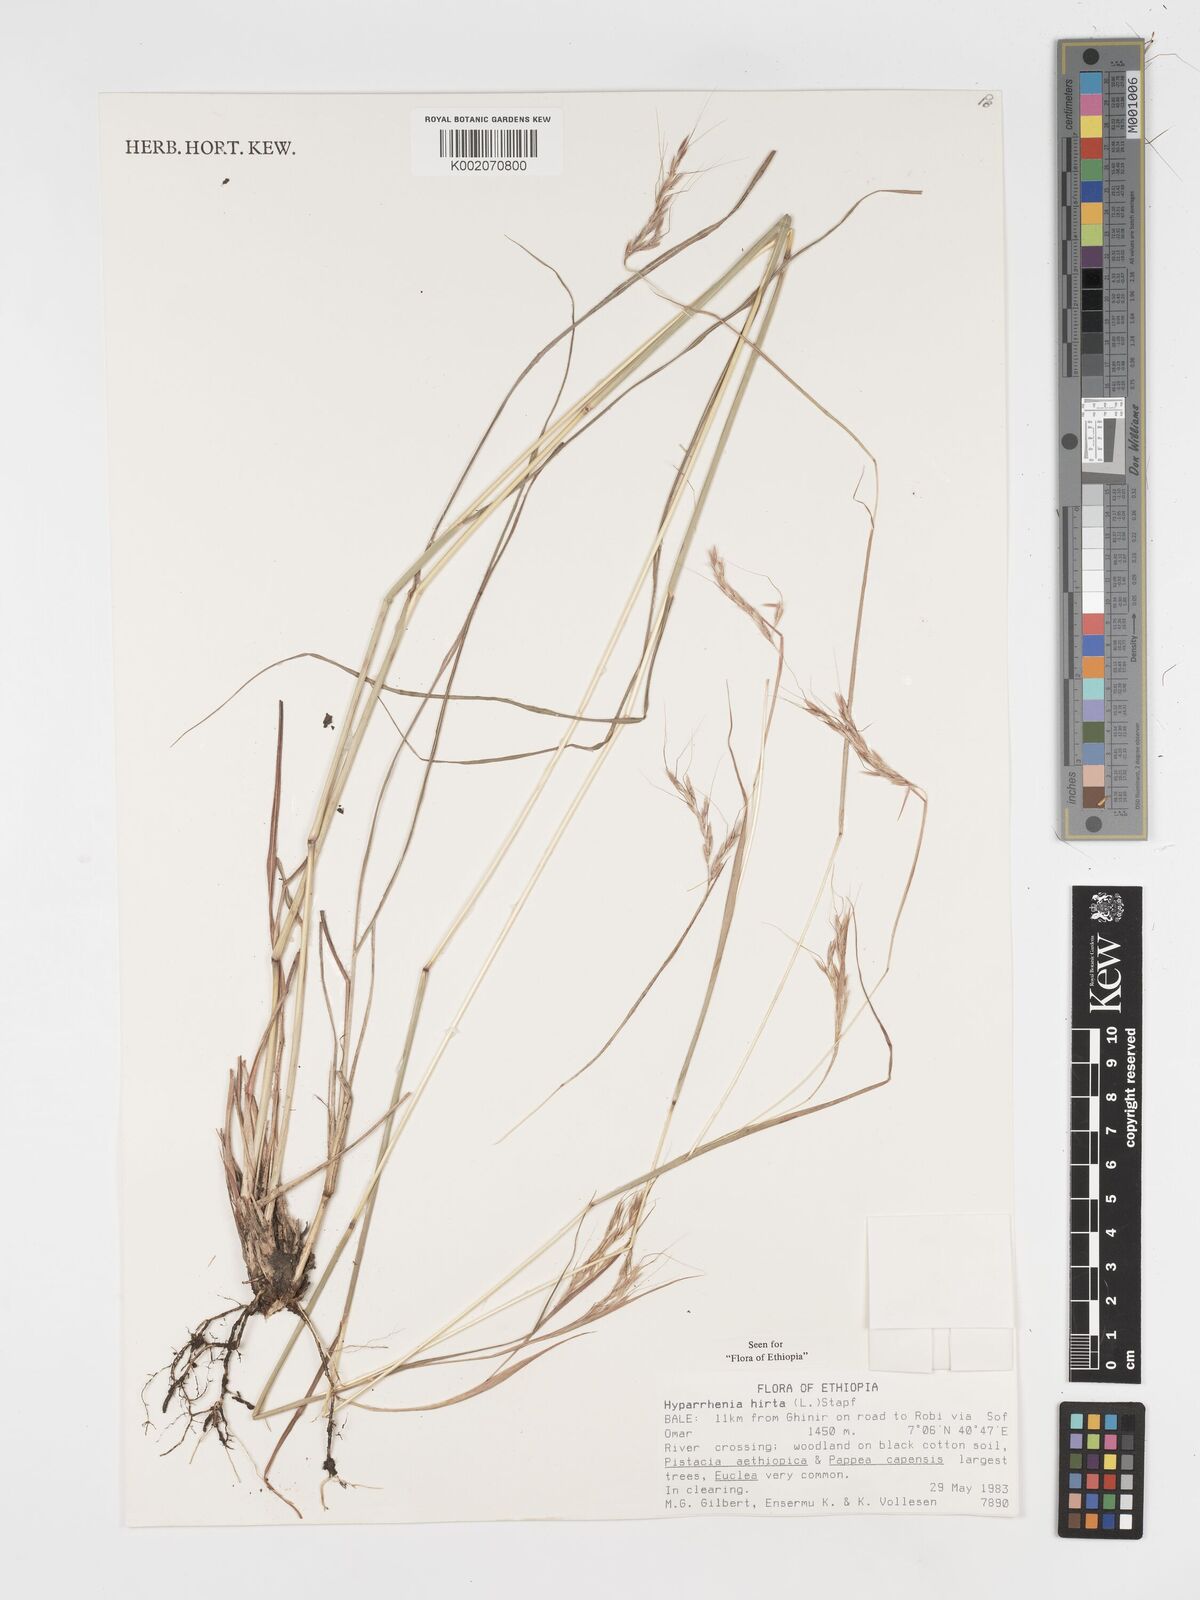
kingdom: Plantae
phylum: Tracheophyta
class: Liliopsida
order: Poales
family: Poaceae
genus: Hyparrhenia
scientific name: Hyparrhenia hirta
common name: Thatching grass
